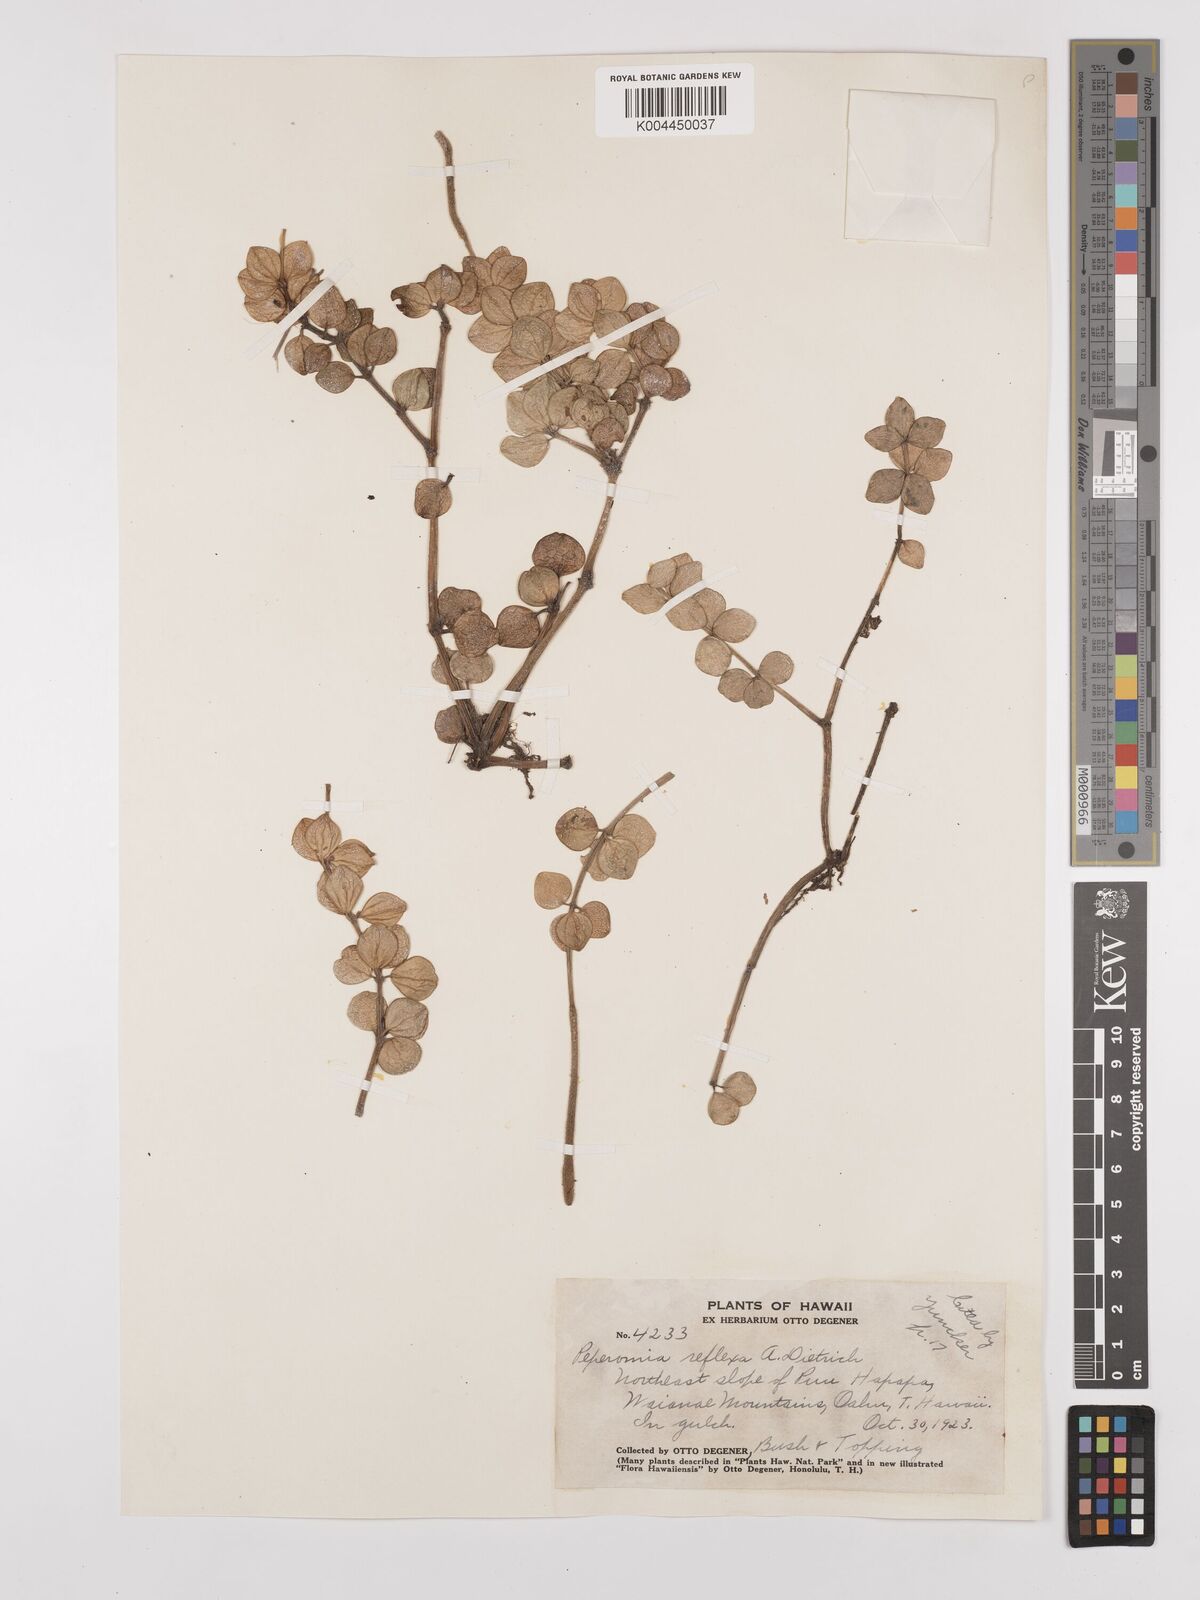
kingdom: Plantae
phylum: Tracheophyta
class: Magnoliopsida
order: Piperales
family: Piperaceae
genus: Peperomia
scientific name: Peperomia tetraphylla
